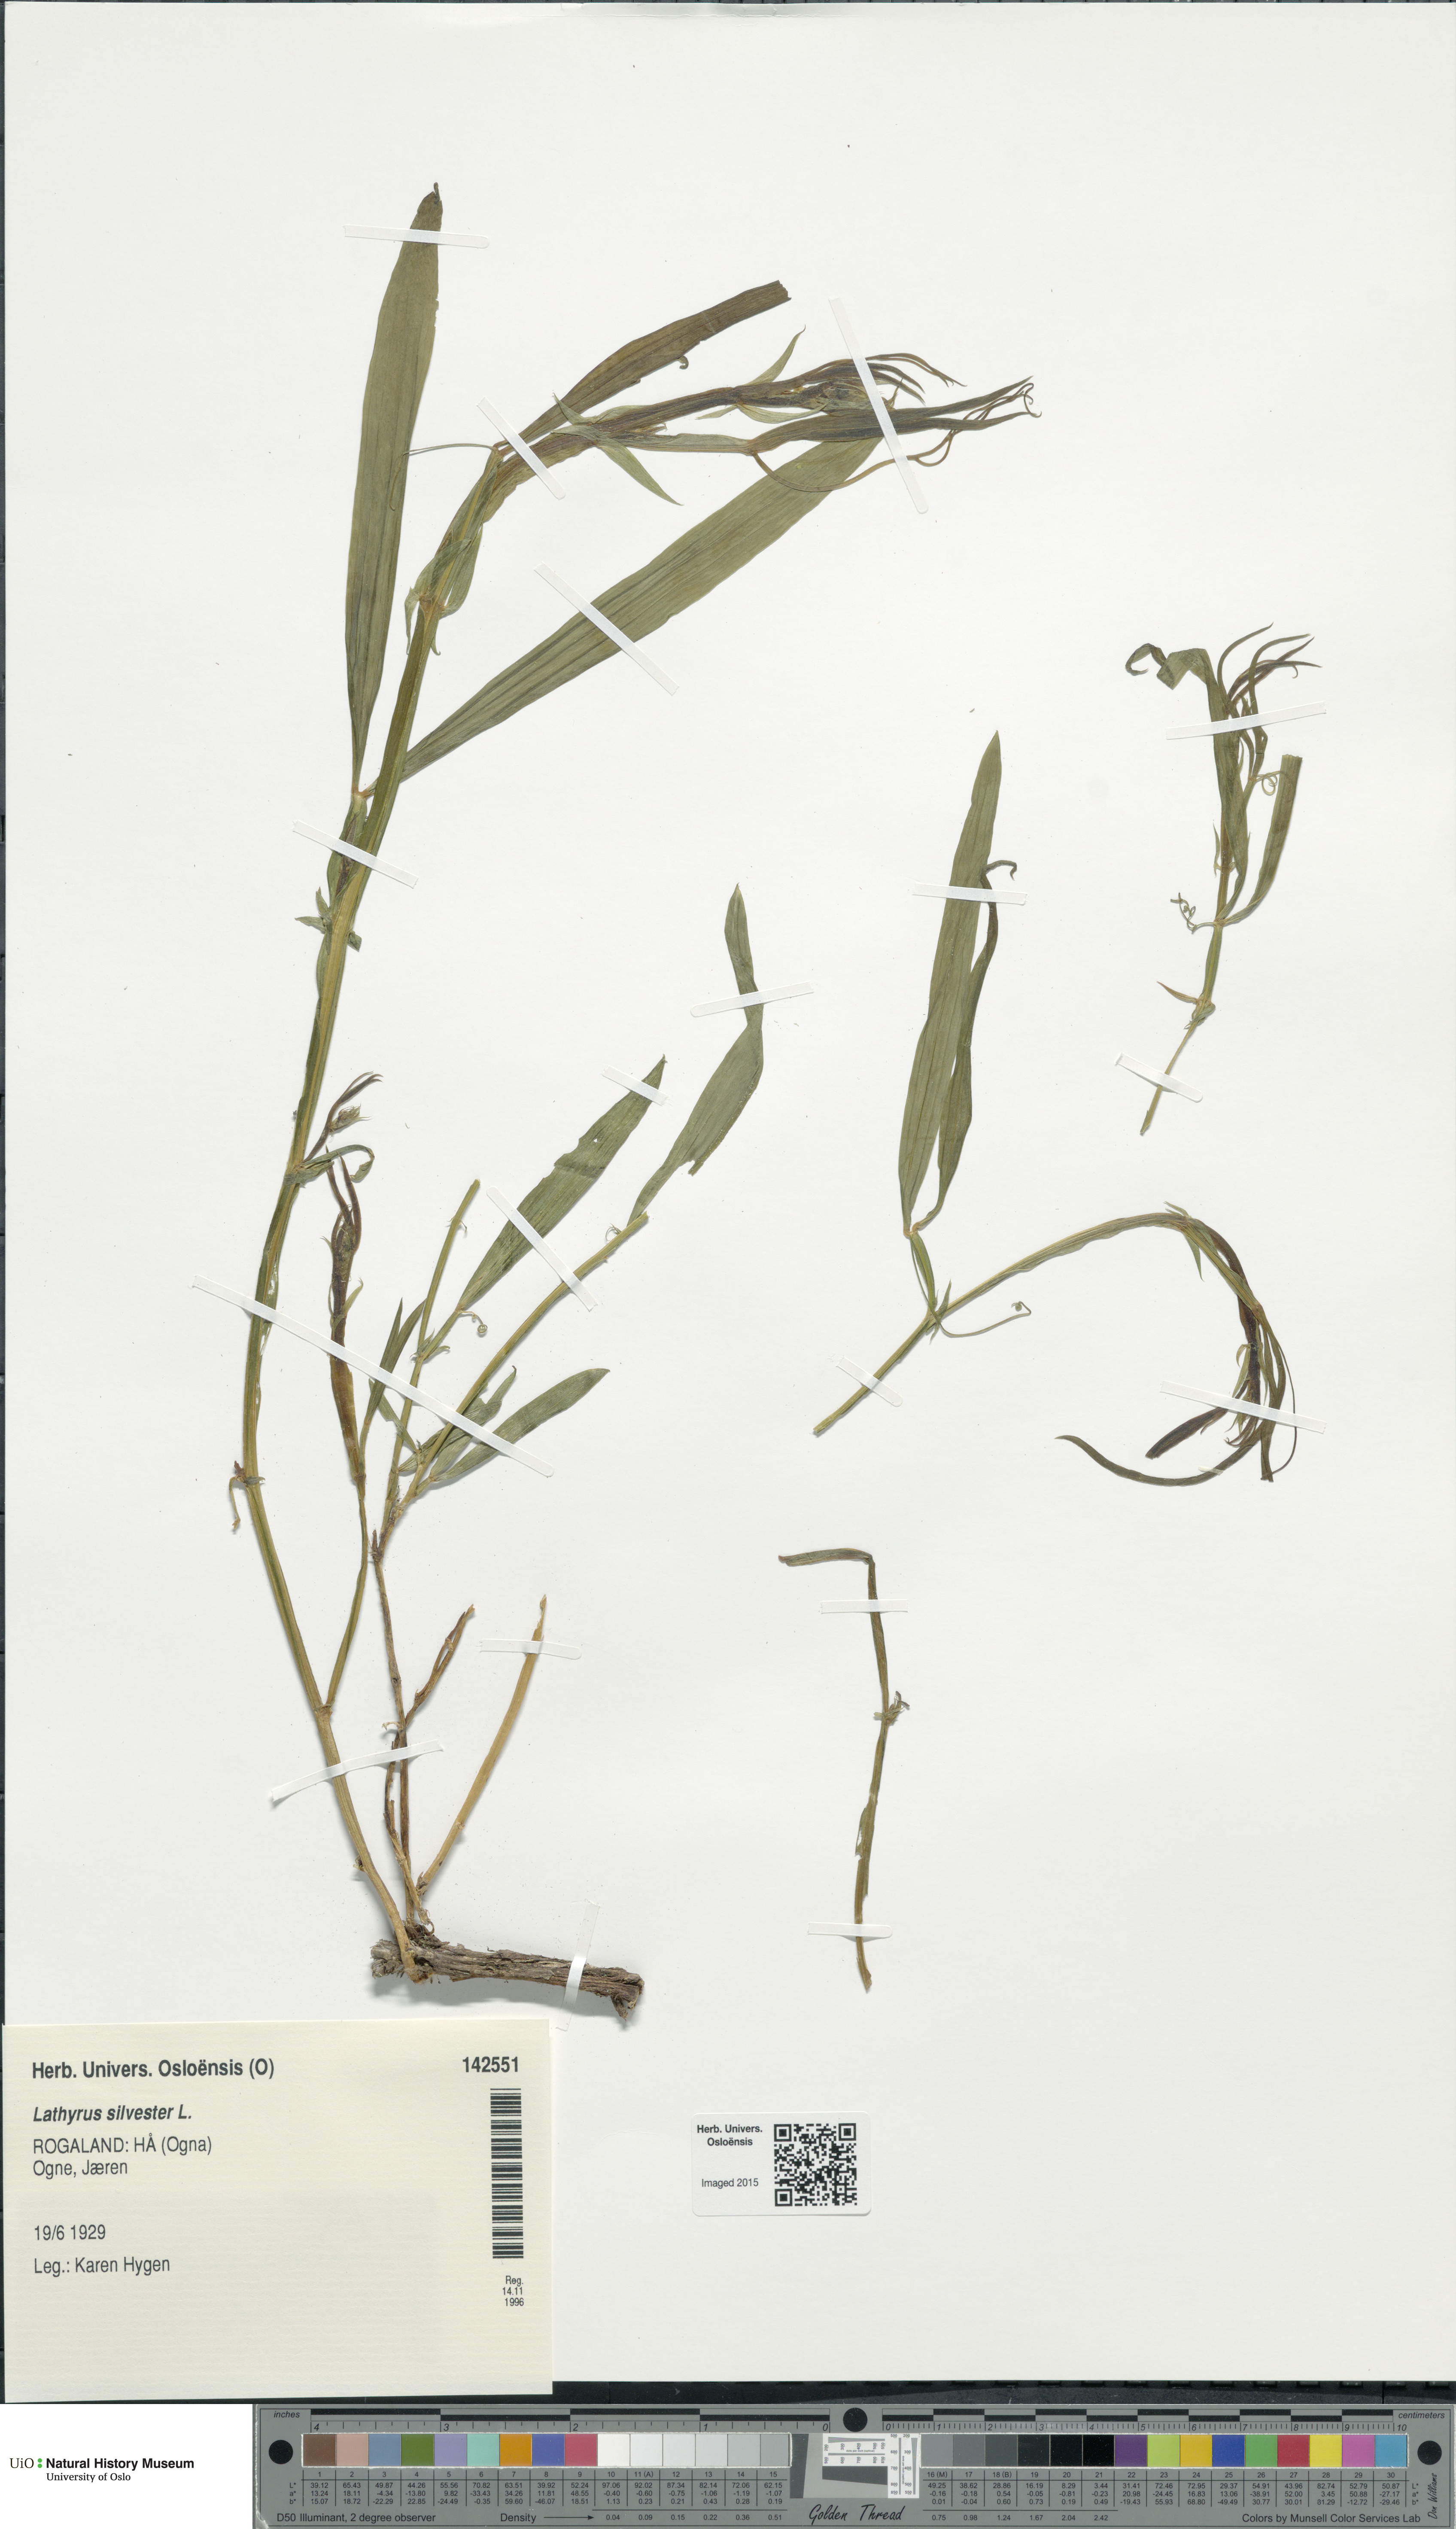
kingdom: Plantae
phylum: Tracheophyta
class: Magnoliopsida
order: Fabales
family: Fabaceae
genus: Lathyrus
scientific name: Lathyrus sylvestris
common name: Flat pea
